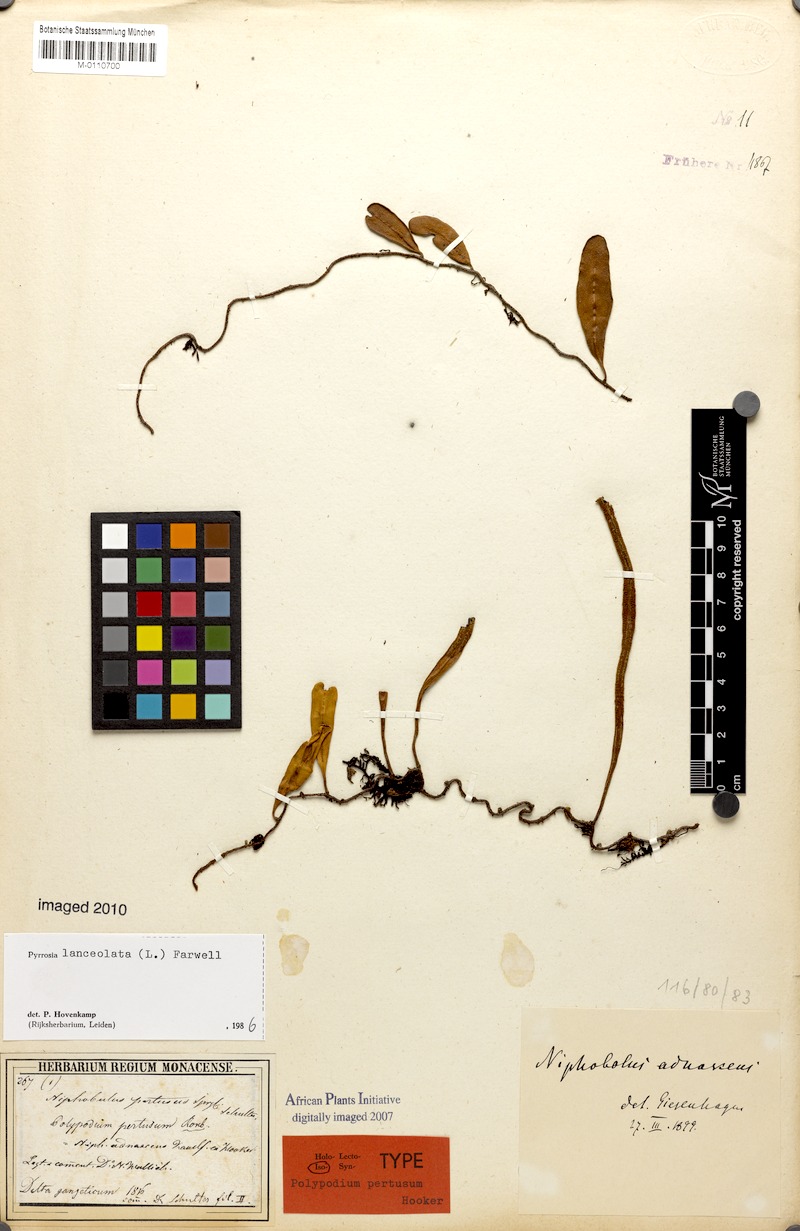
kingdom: Plantae
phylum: Tracheophyta
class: Polypodiopsida
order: Polypodiales
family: Polypodiaceae
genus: Pyrrosia
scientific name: Pyrrosia lanceolata
